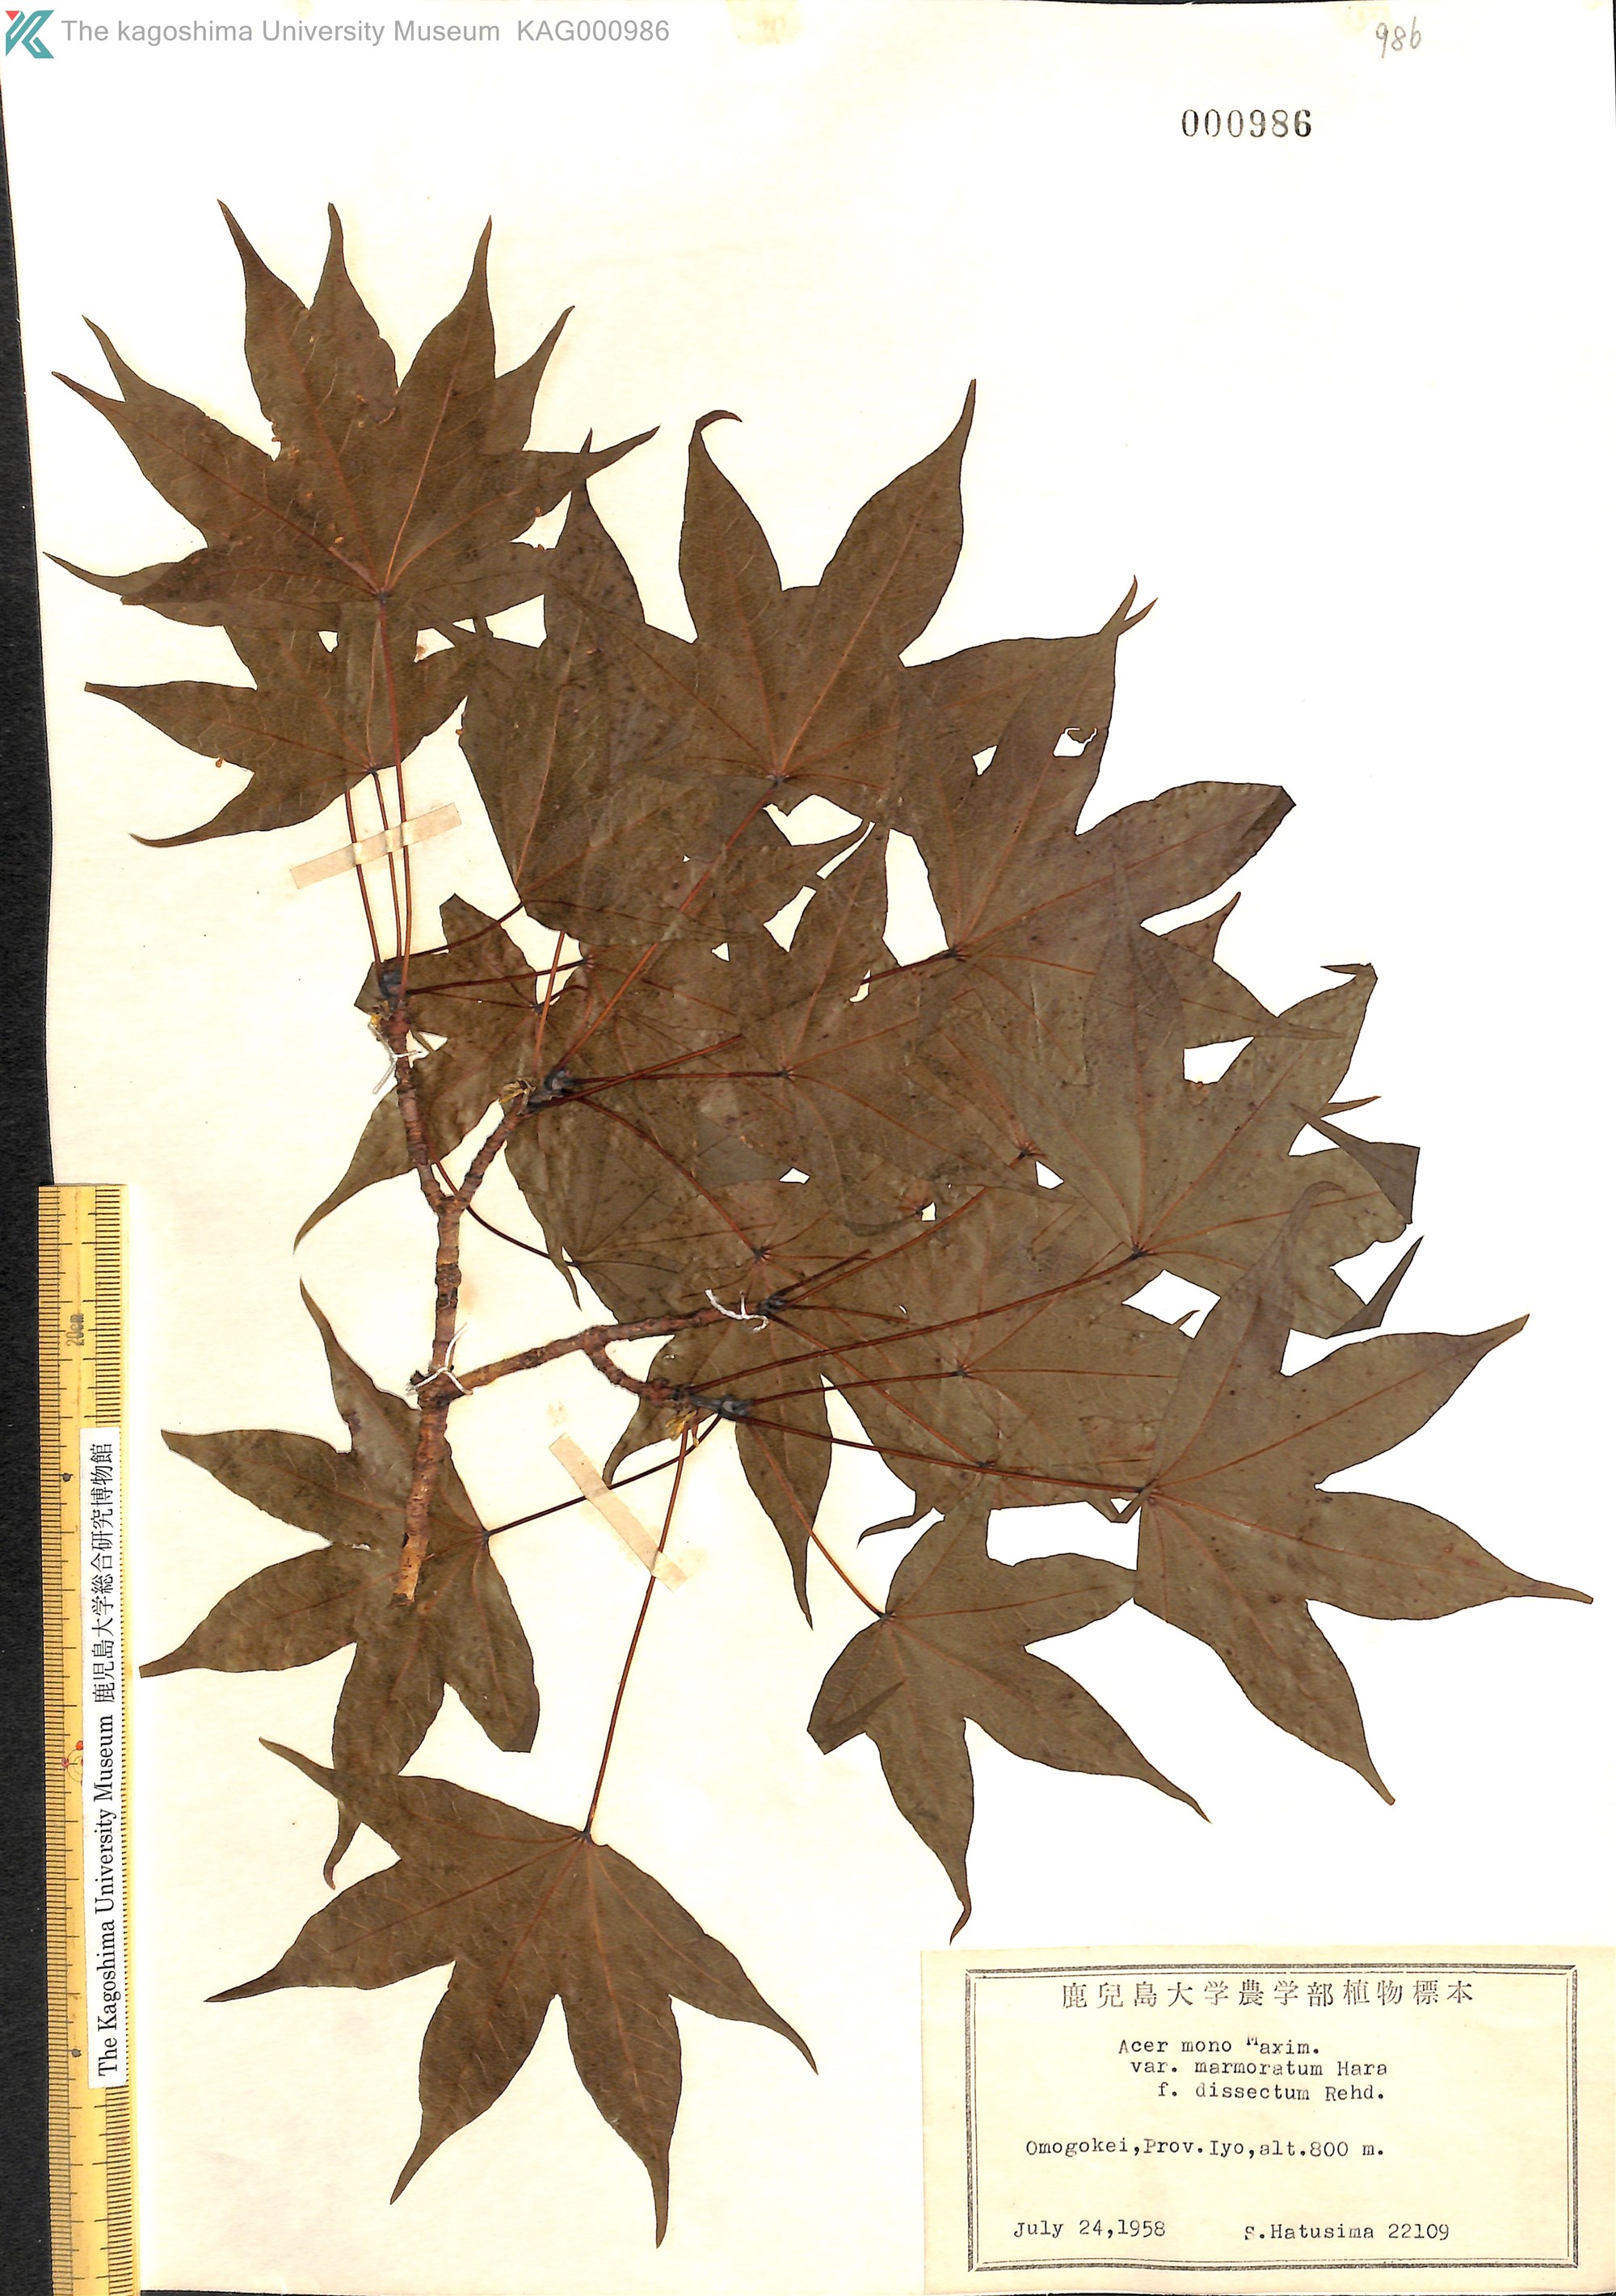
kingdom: Plantae
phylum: Tracheophyta
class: Magnoliopsida
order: Sapindales
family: Sapindaceae
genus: Acer
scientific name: Acer pictum
